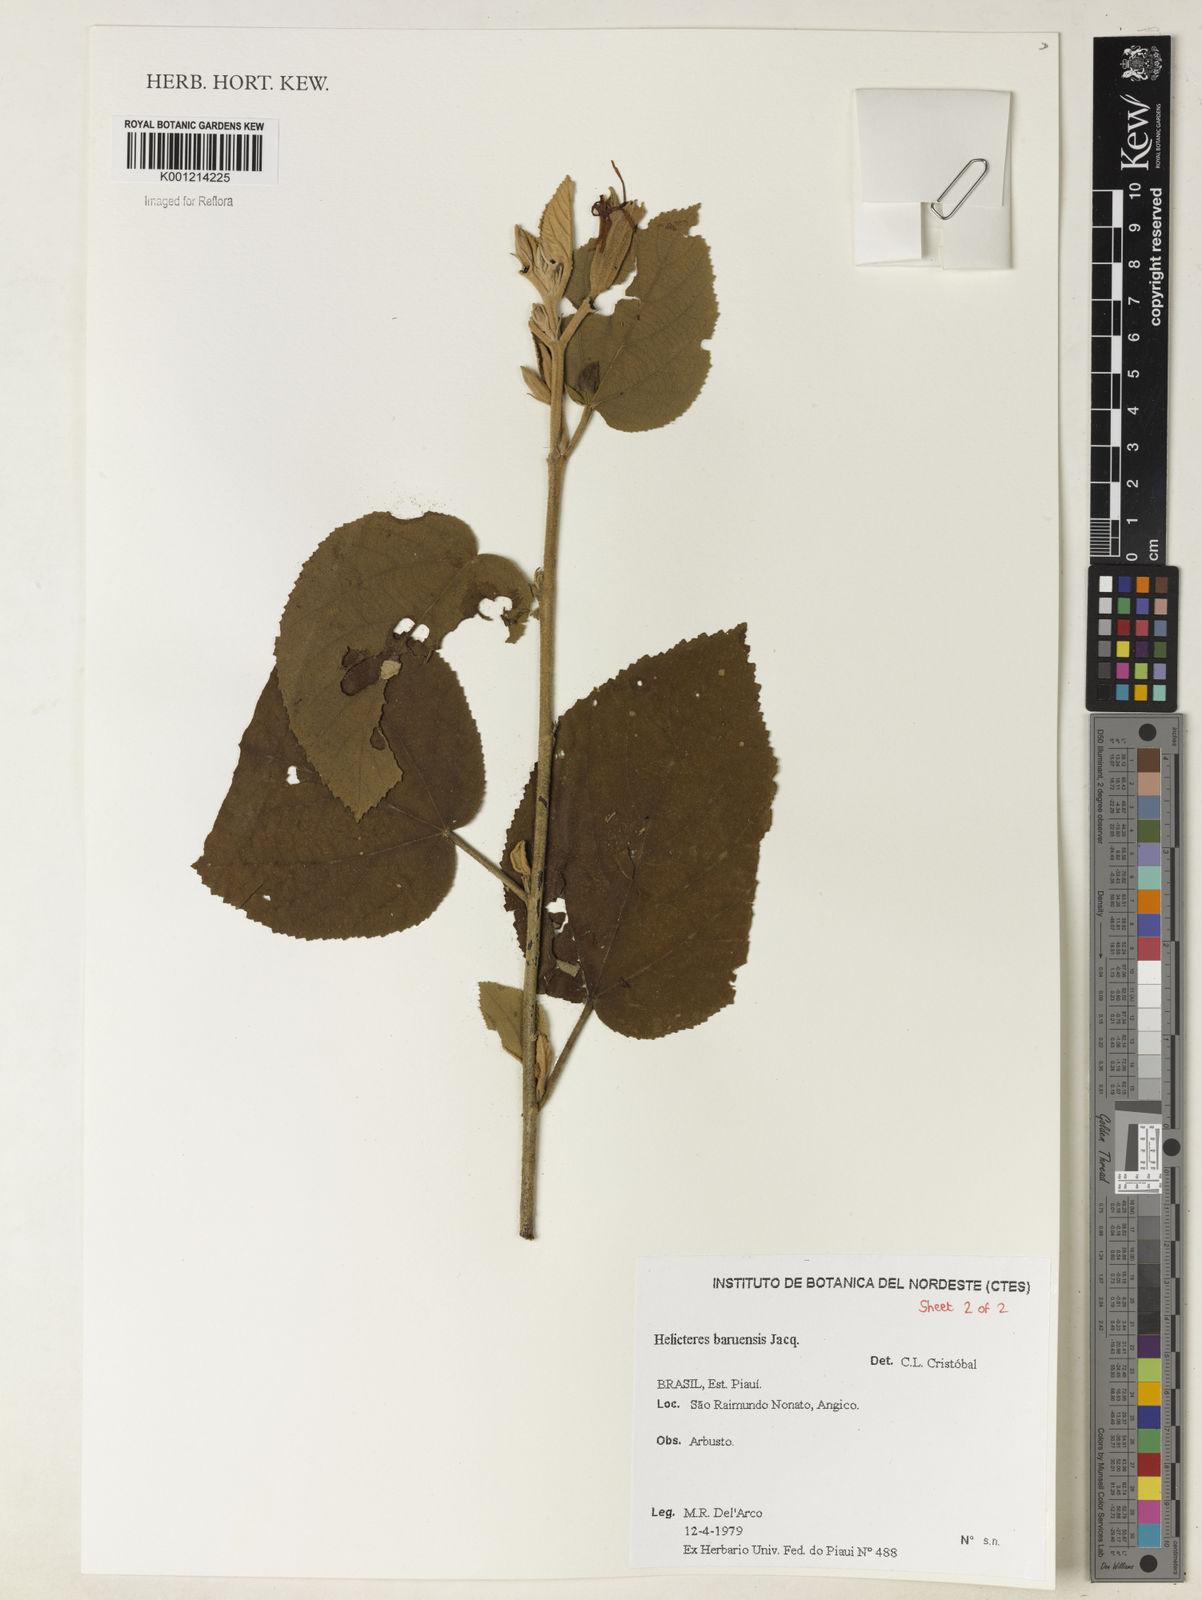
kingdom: Plantae
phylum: Tracheophyta
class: Magnoliopsida
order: Malvales
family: Malvaceae
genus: Helicteres
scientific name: Helicteres baruensis
